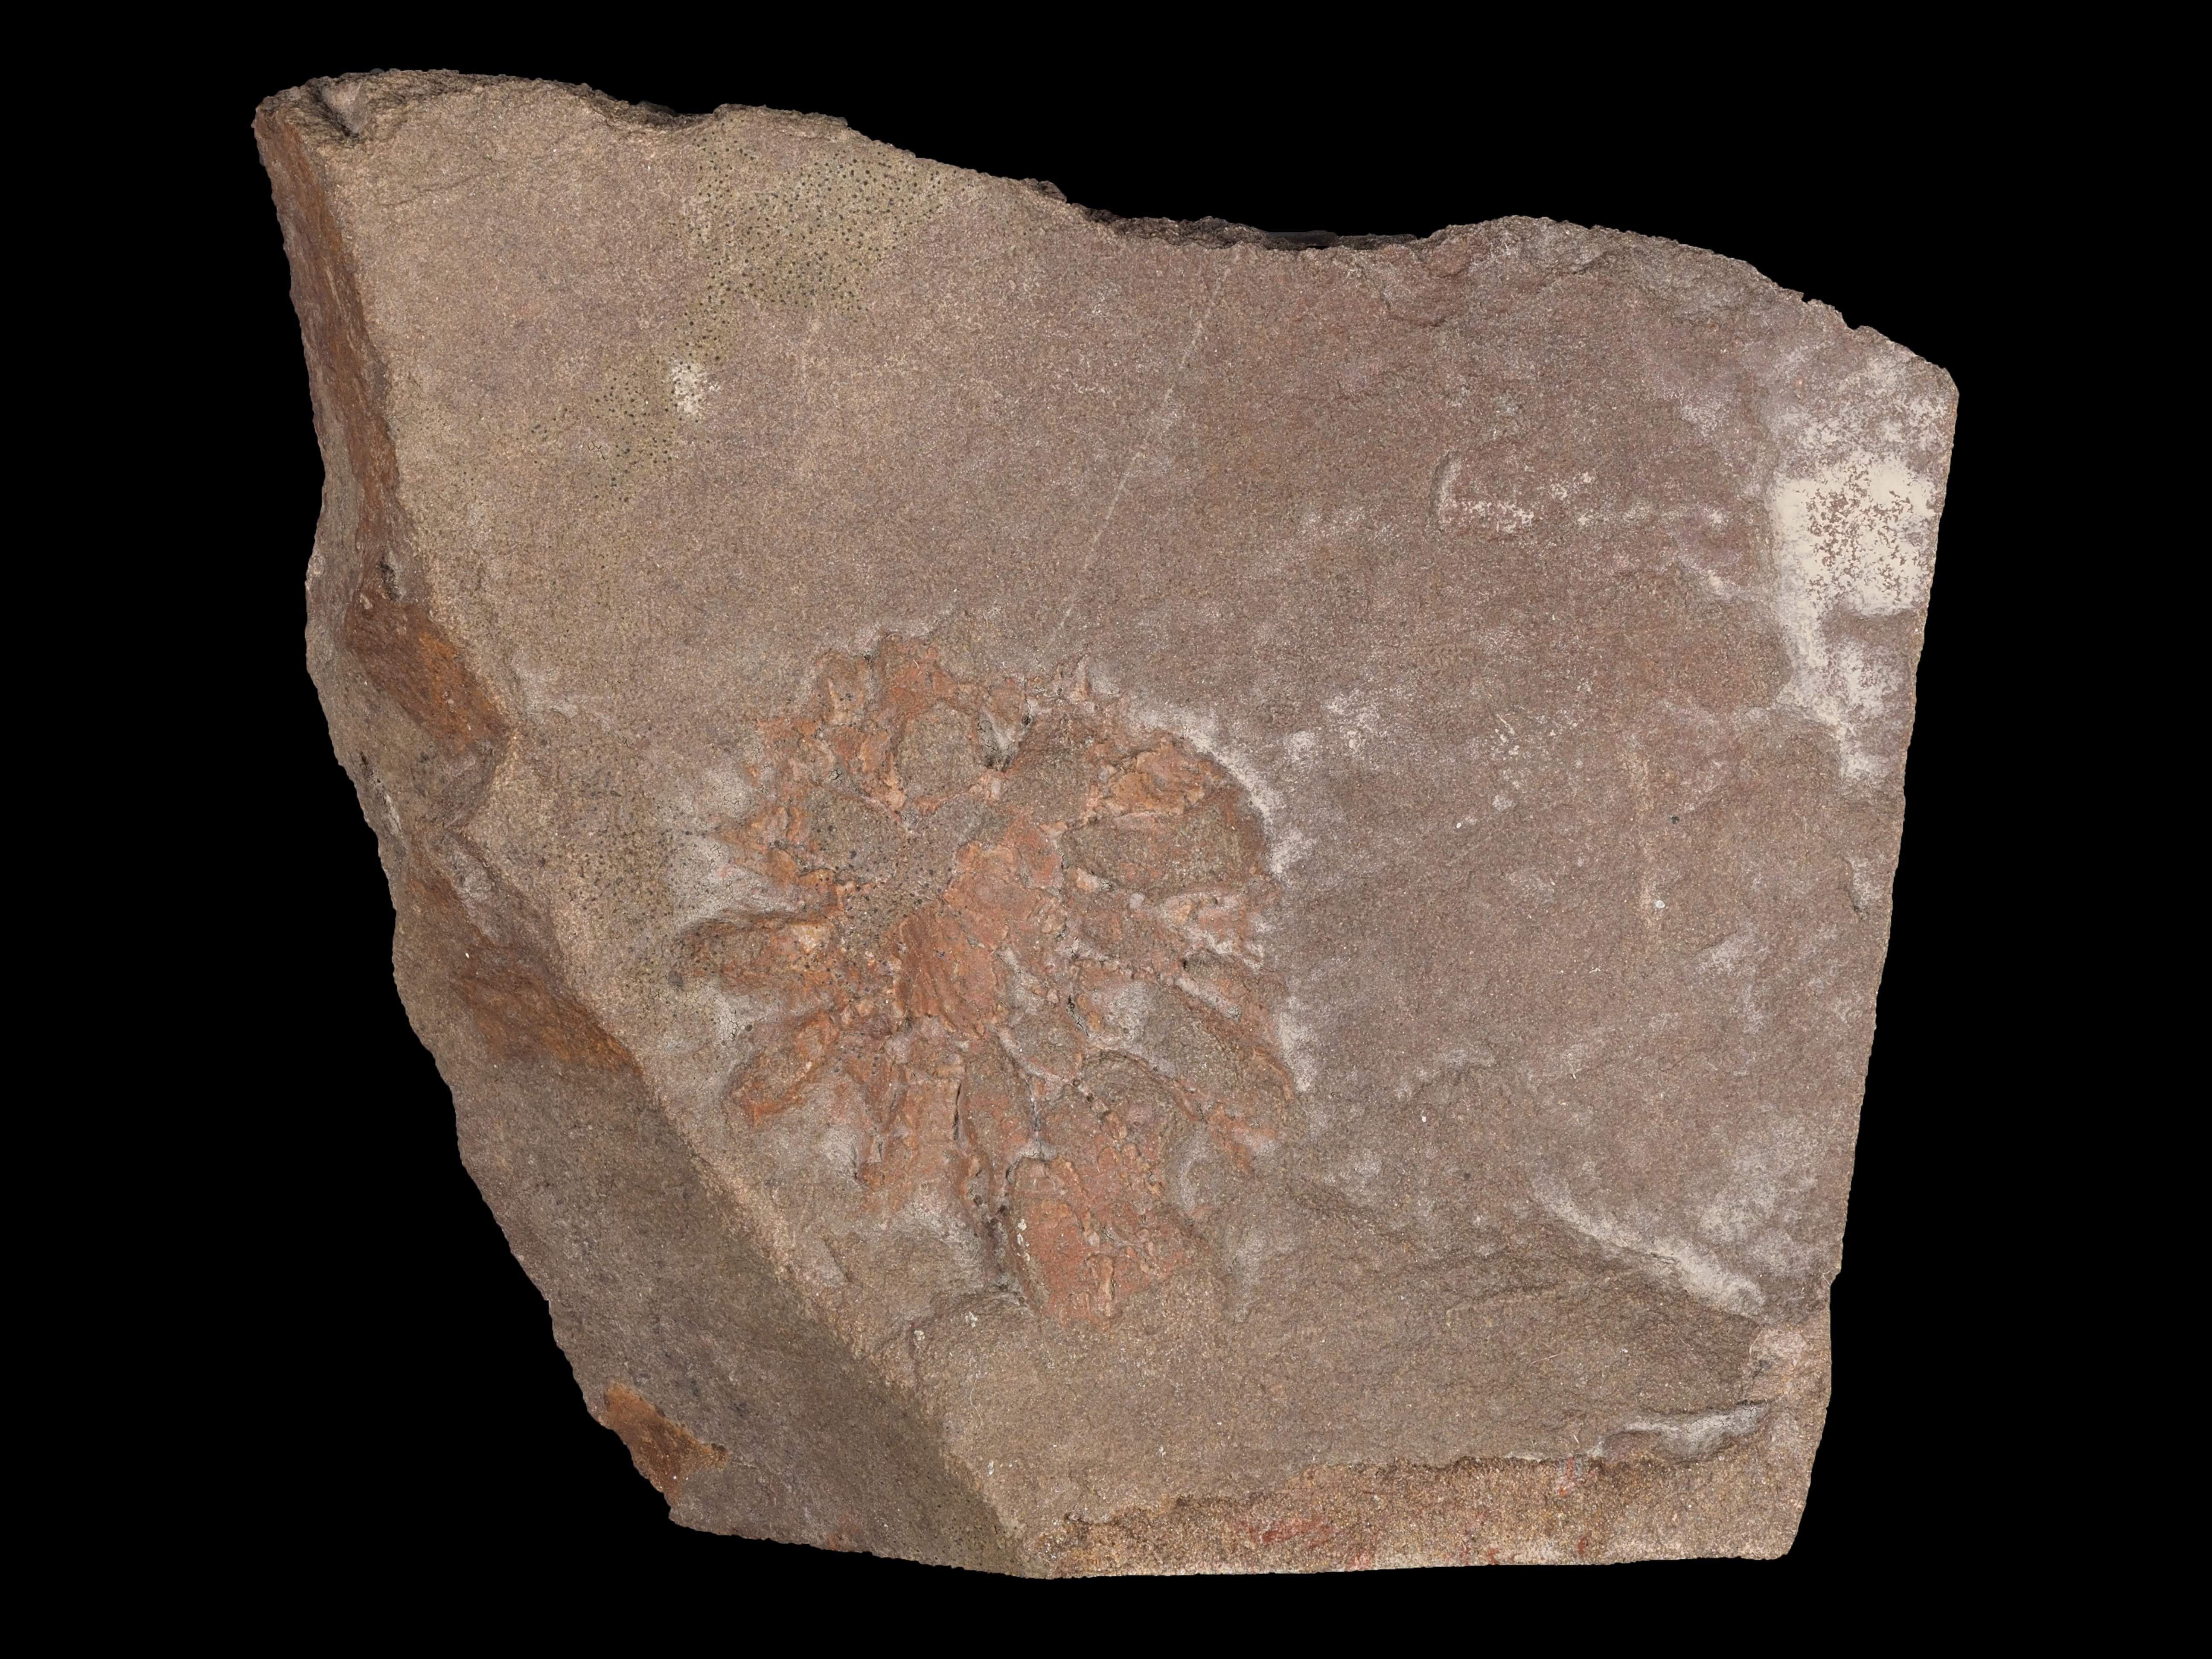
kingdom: Animalia
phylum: Cnidaria
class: Anthozoa
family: Micheliniidae
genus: Pleurodictyum
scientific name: Pleurodictyum
